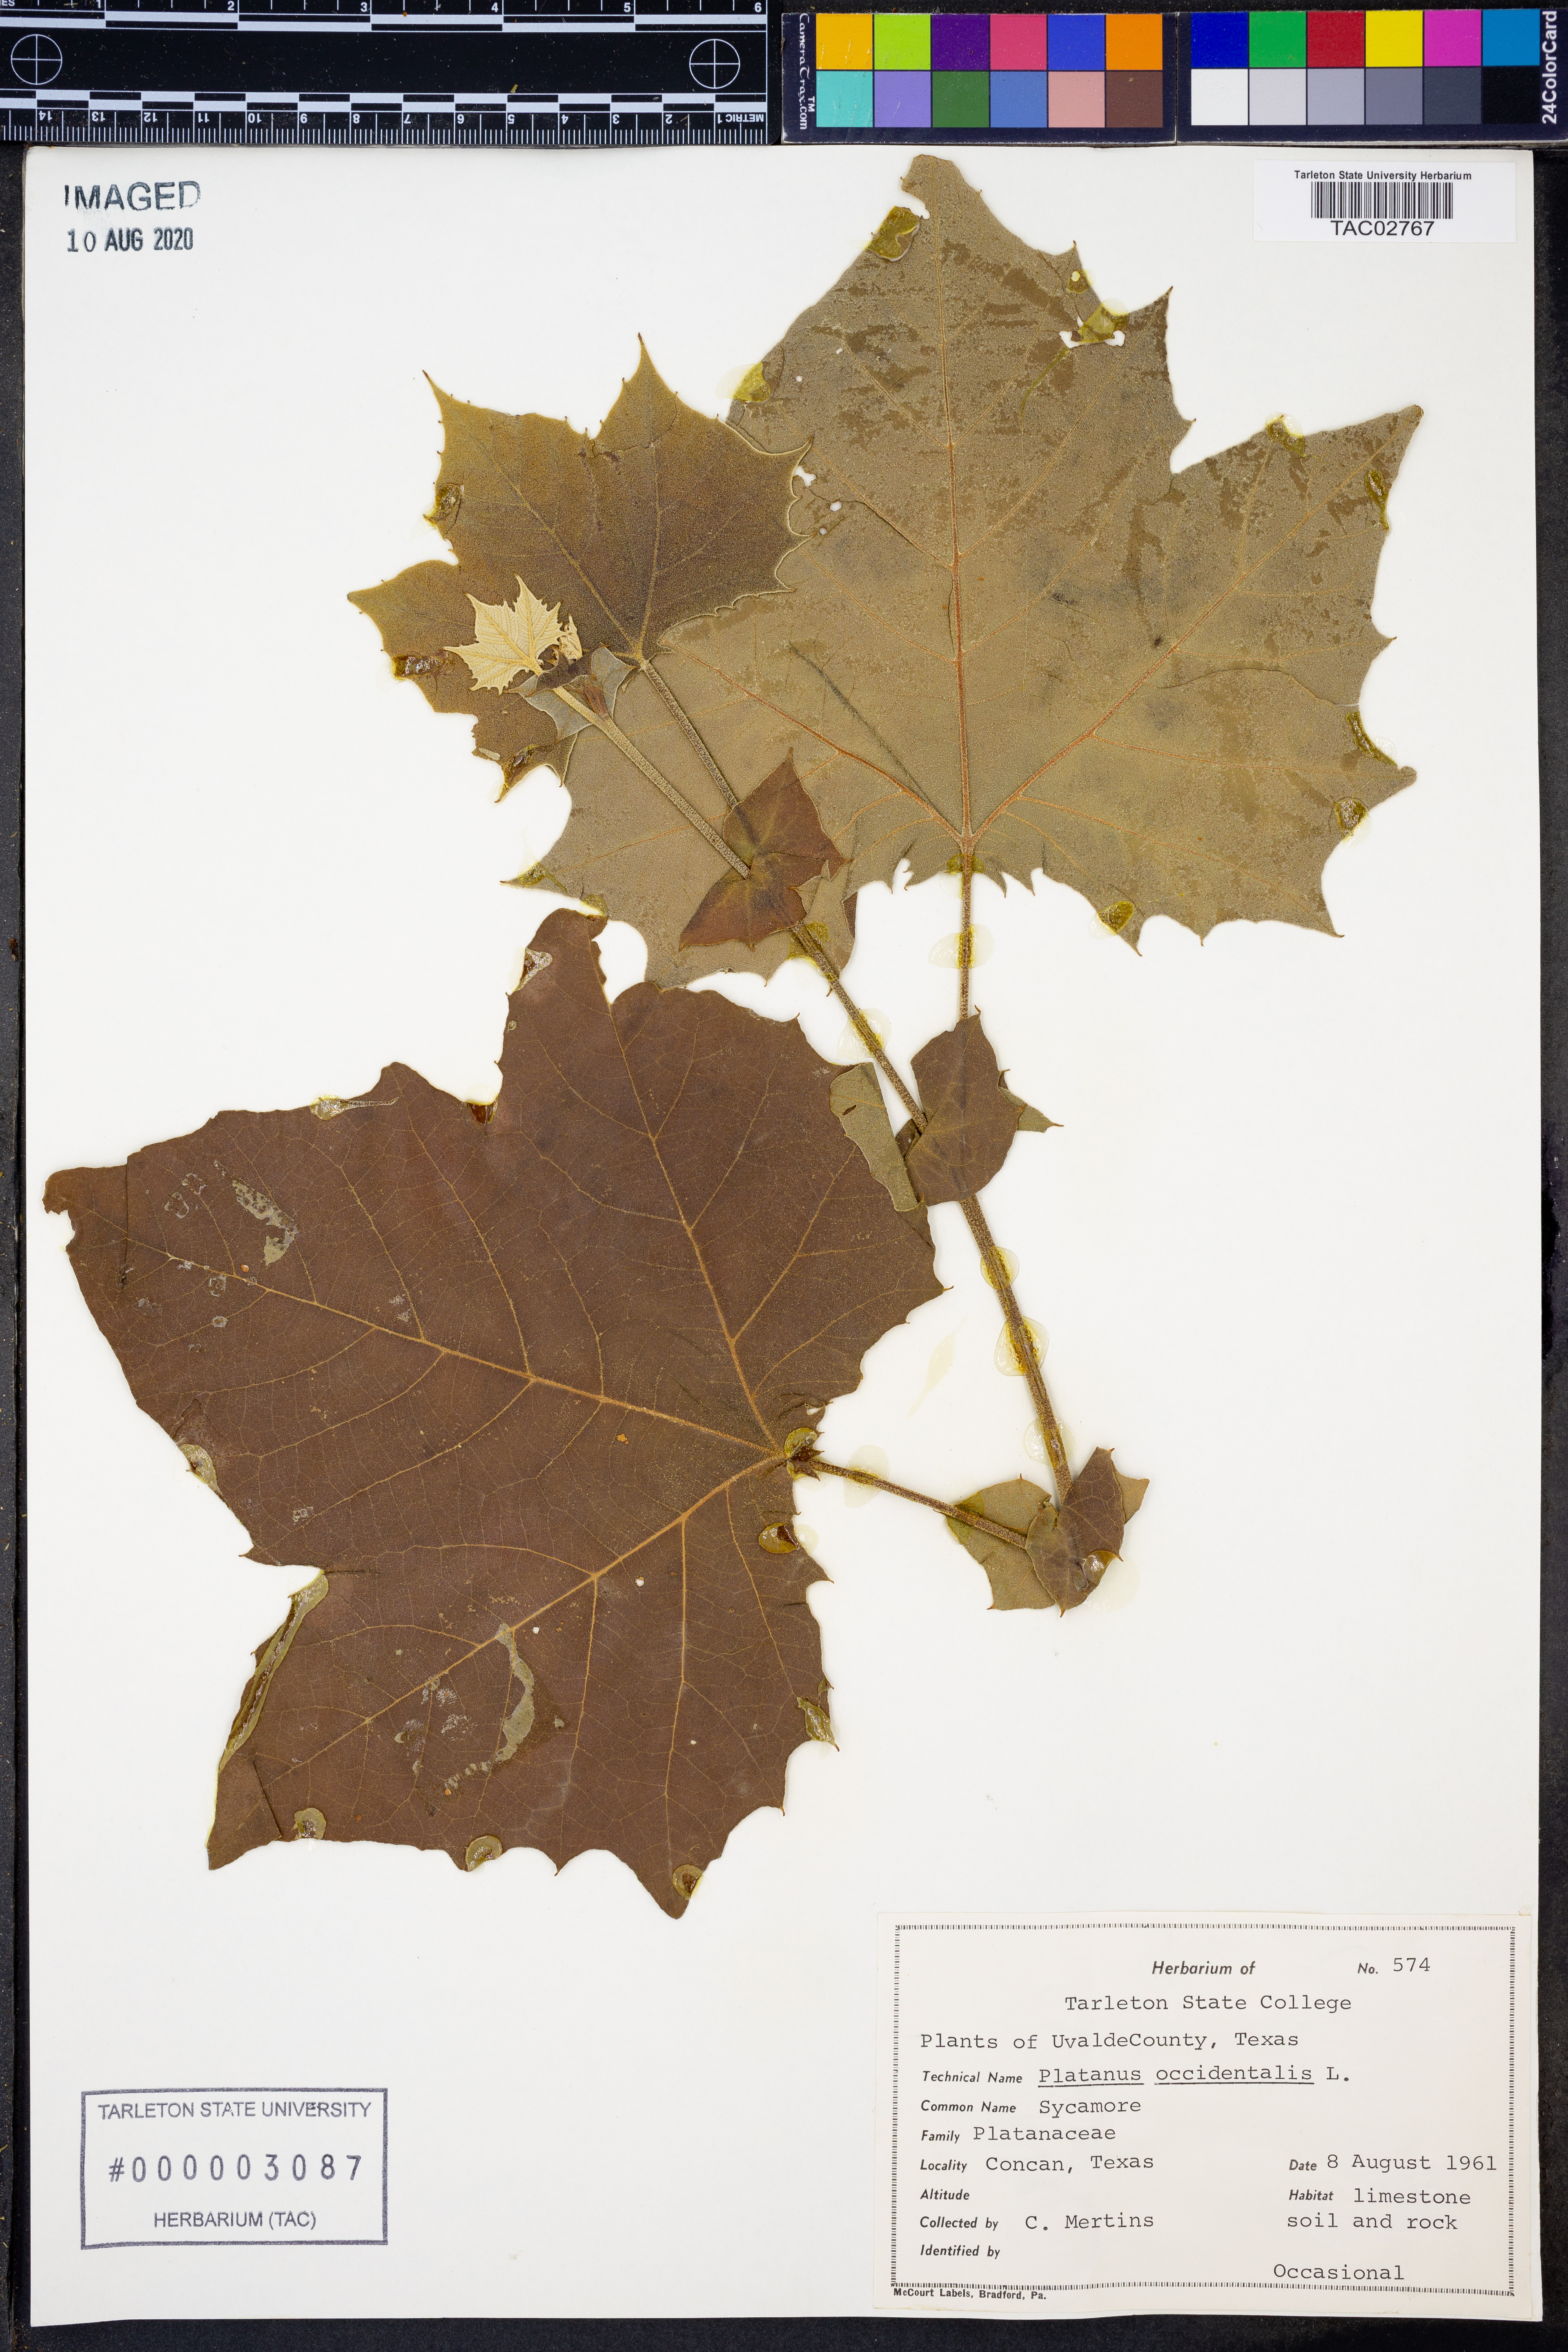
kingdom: Plantae
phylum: Tracheophyta
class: Magnoliopsida
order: Proteales
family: Platanaceae
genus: Platanus
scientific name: Platanus occidentalis
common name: American sycamore
